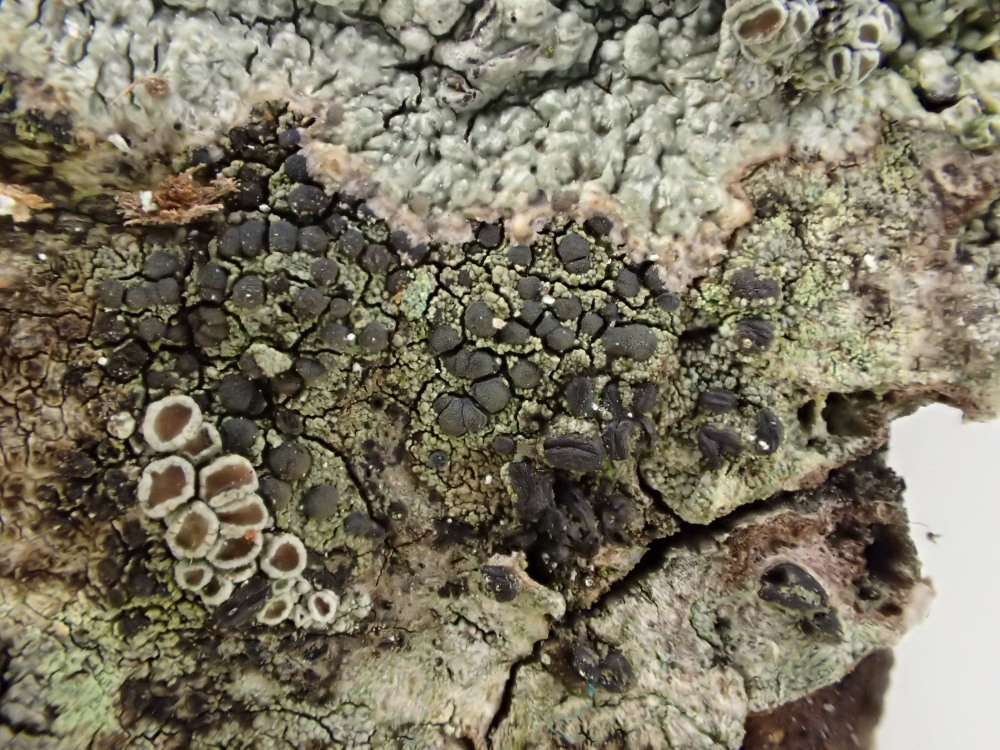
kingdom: Fungi
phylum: Ascomycota
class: Lecanoromycetes
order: Lecanorales
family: Lecanoraceae
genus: Lecidella
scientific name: Lecidella euphorea
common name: vortet skivelav
